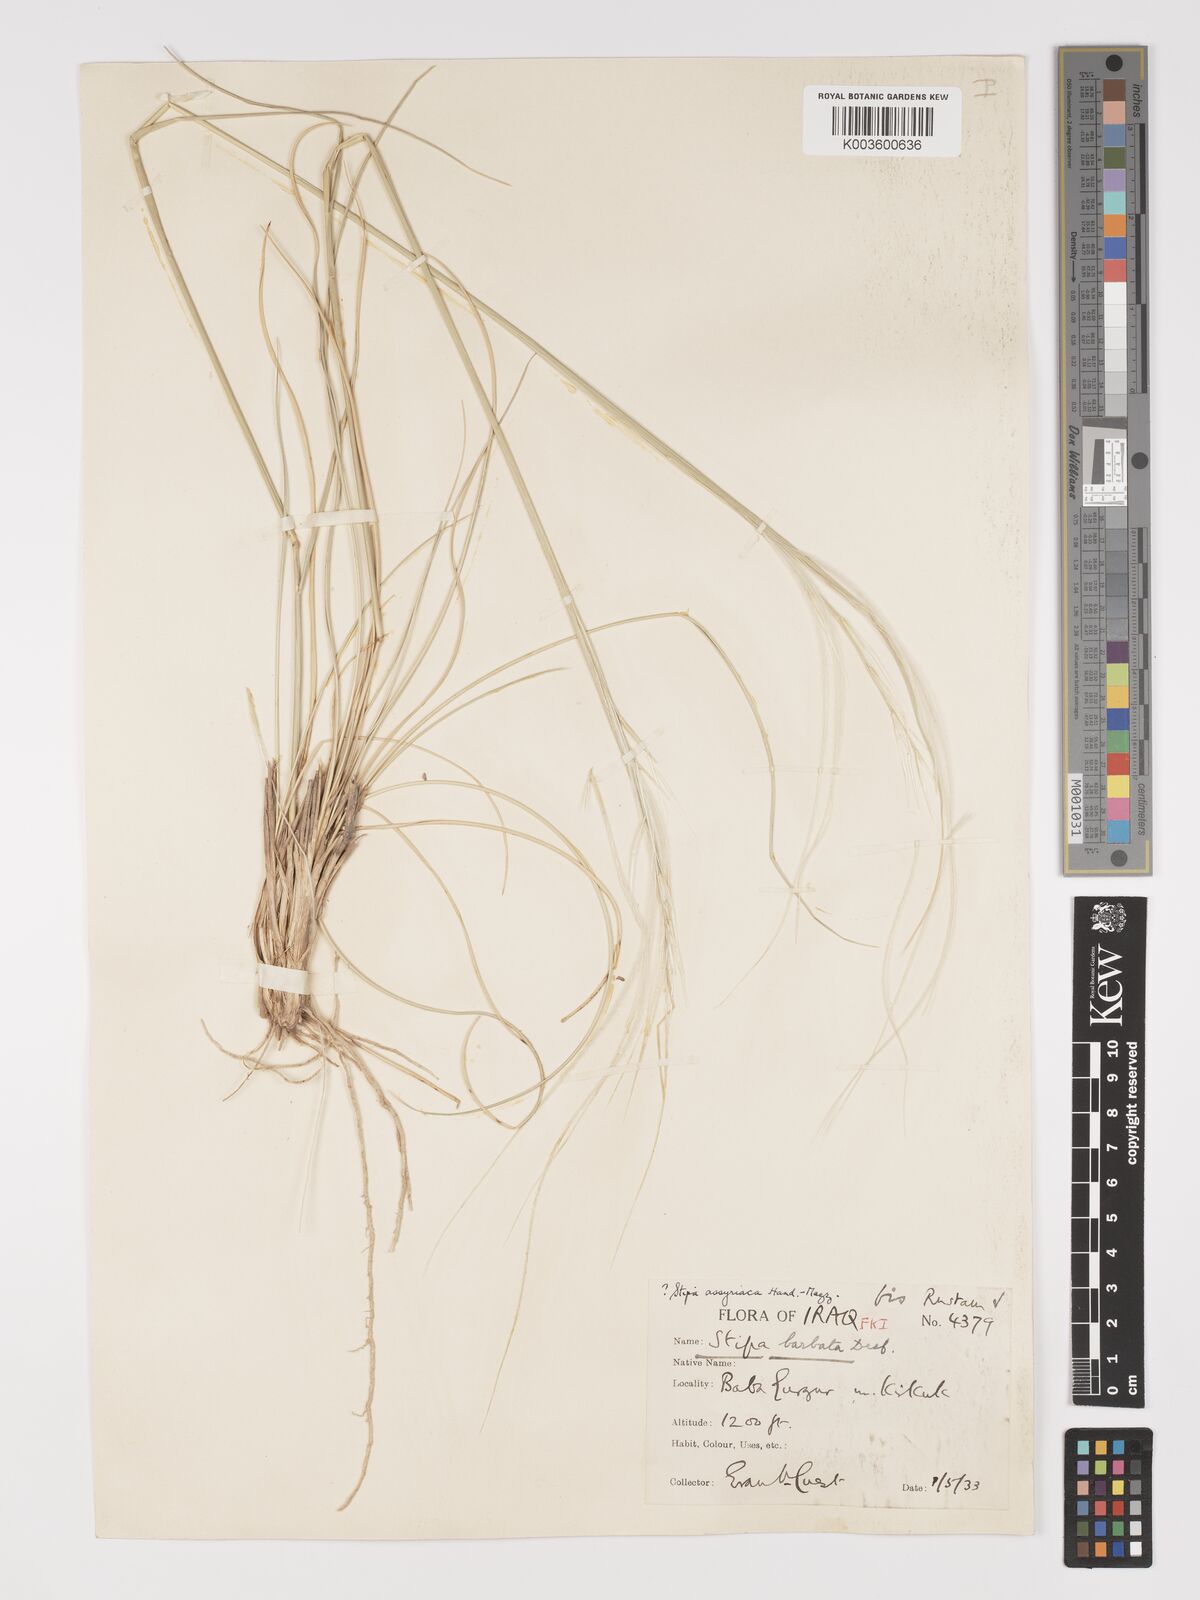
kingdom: Plantae
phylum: Tracheophyta
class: Liliopsida
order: Poales
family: Poaceae
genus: Stipa
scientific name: Stipa hohenackeriana
